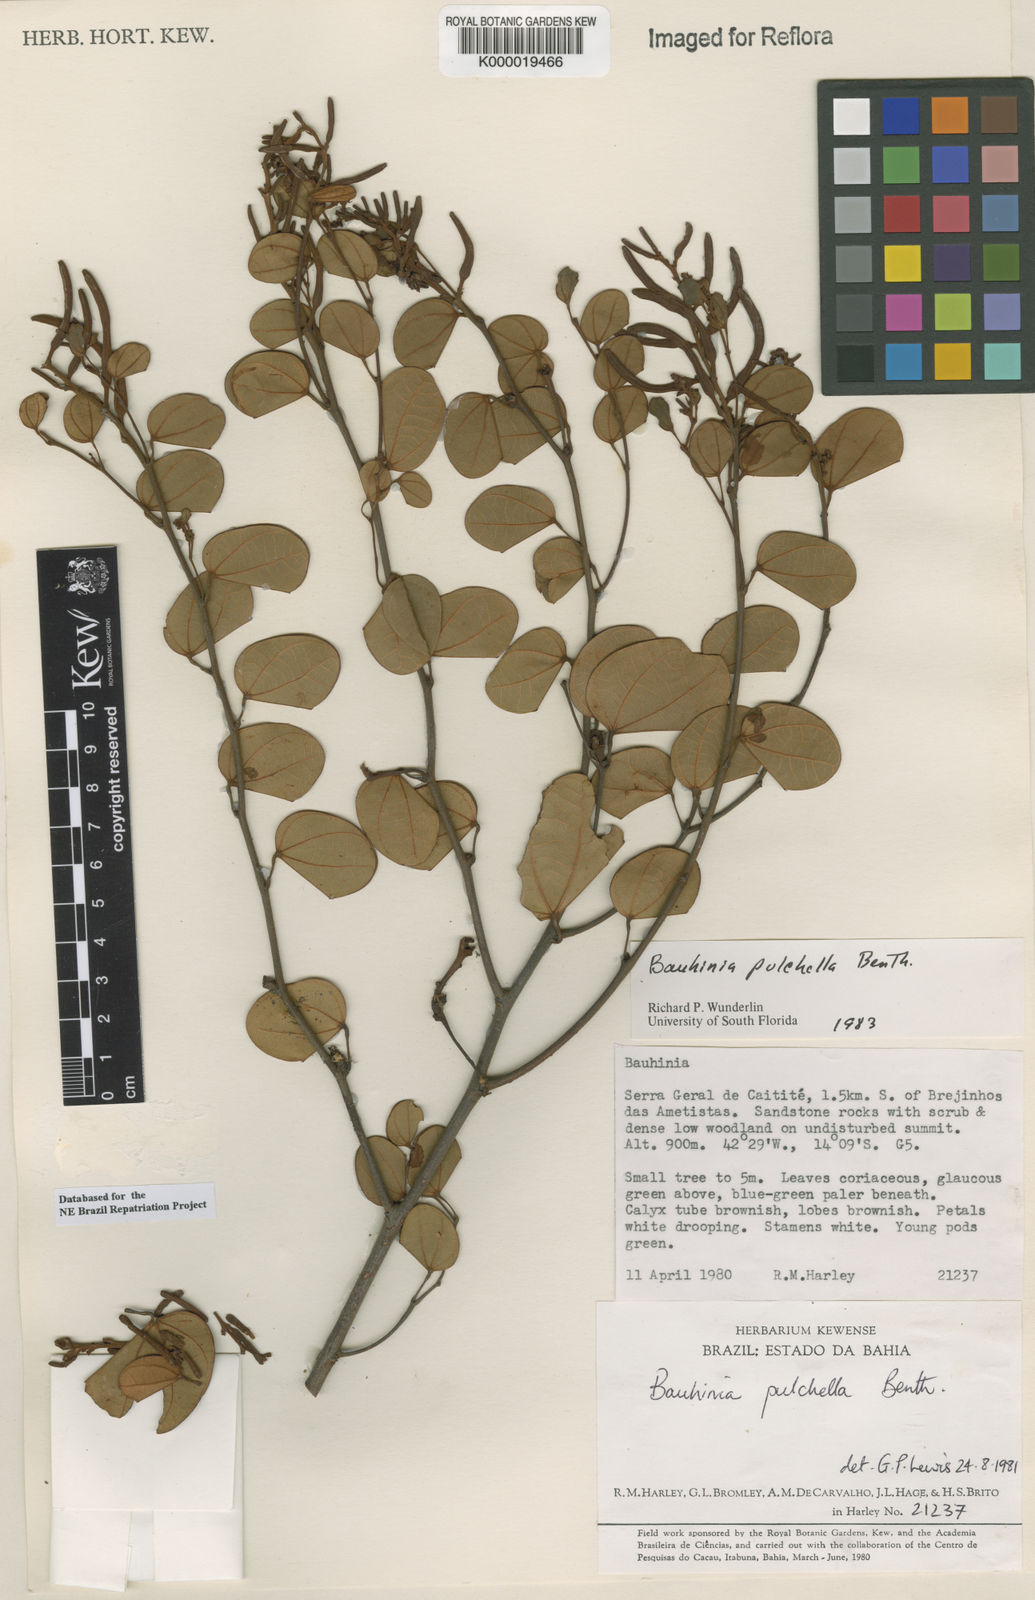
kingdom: Plantae
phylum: Tracheophyta
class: Magnoliopsida
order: Fabales
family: Fabaceae
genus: Bauhinia
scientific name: Bauhinia pulchella
